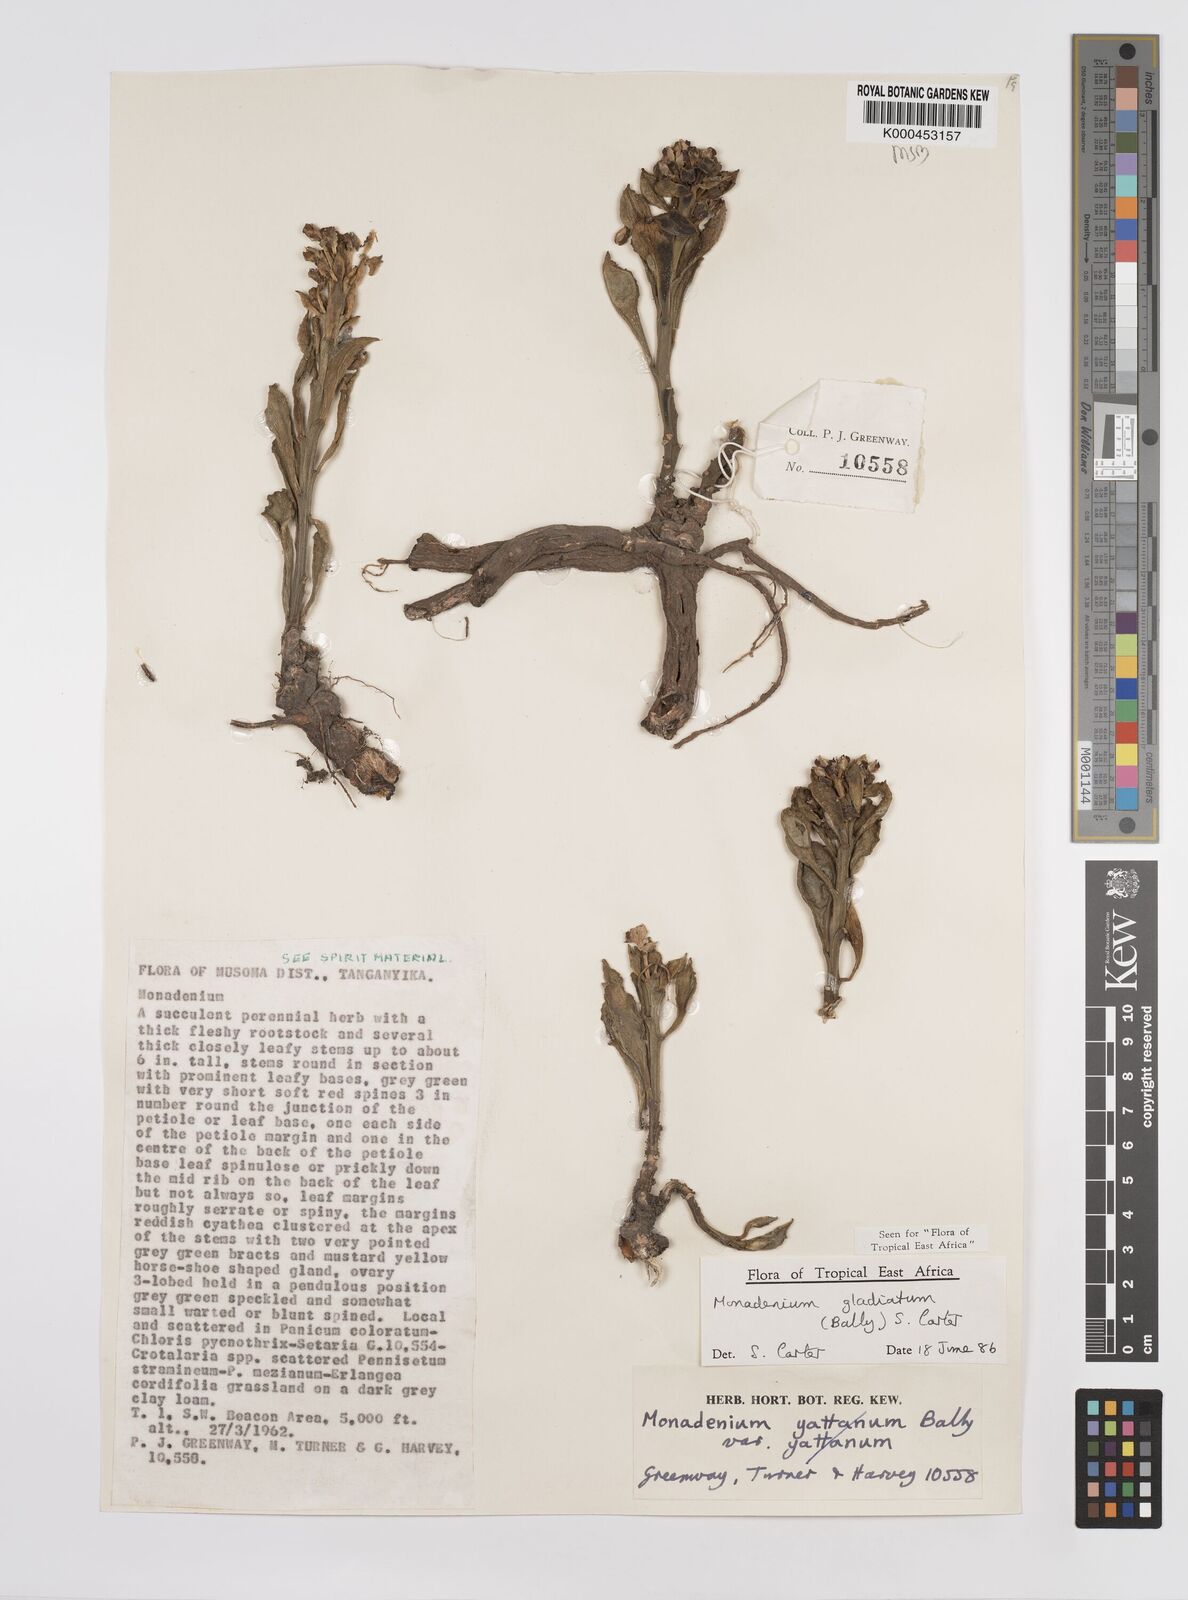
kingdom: Plantae
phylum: Tracheophyta
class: Magnoliopsida
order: Malpighiales
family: Euphorbiaceae
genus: Euphorbia
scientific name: Euphorbia gladiata
